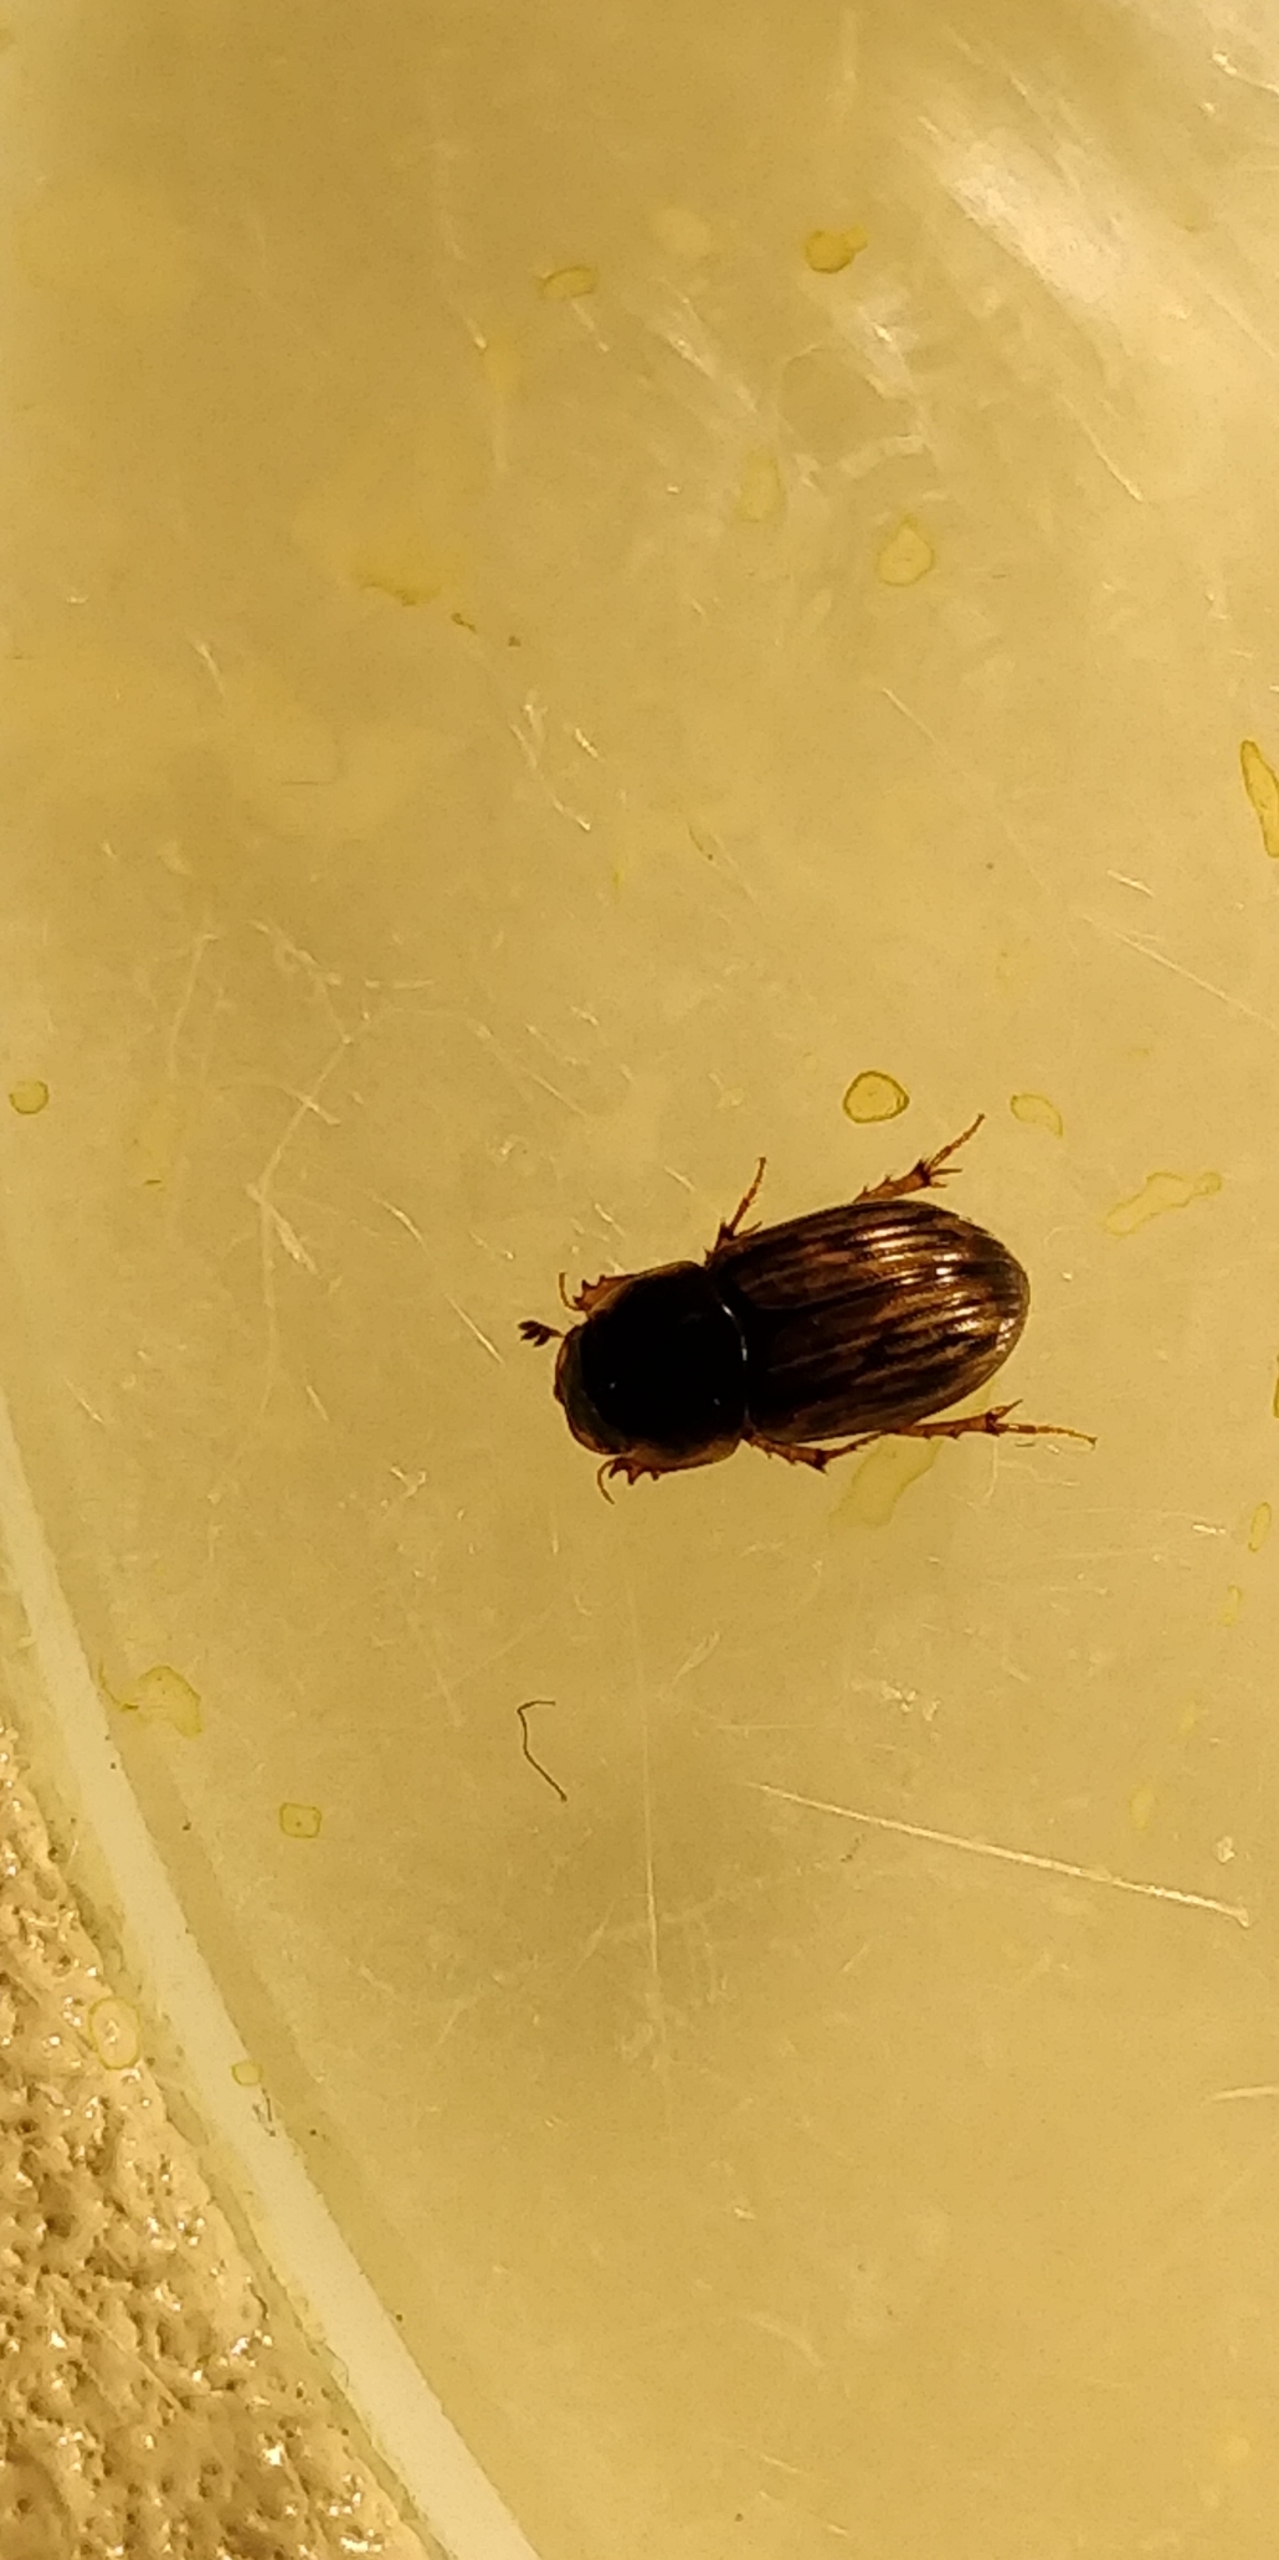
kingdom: Animalia
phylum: Arthropoda
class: Insecta
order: Coleoptera
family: Scarabaeidae
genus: Volinus
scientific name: Volinus sticticus
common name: Skovmøgbille
